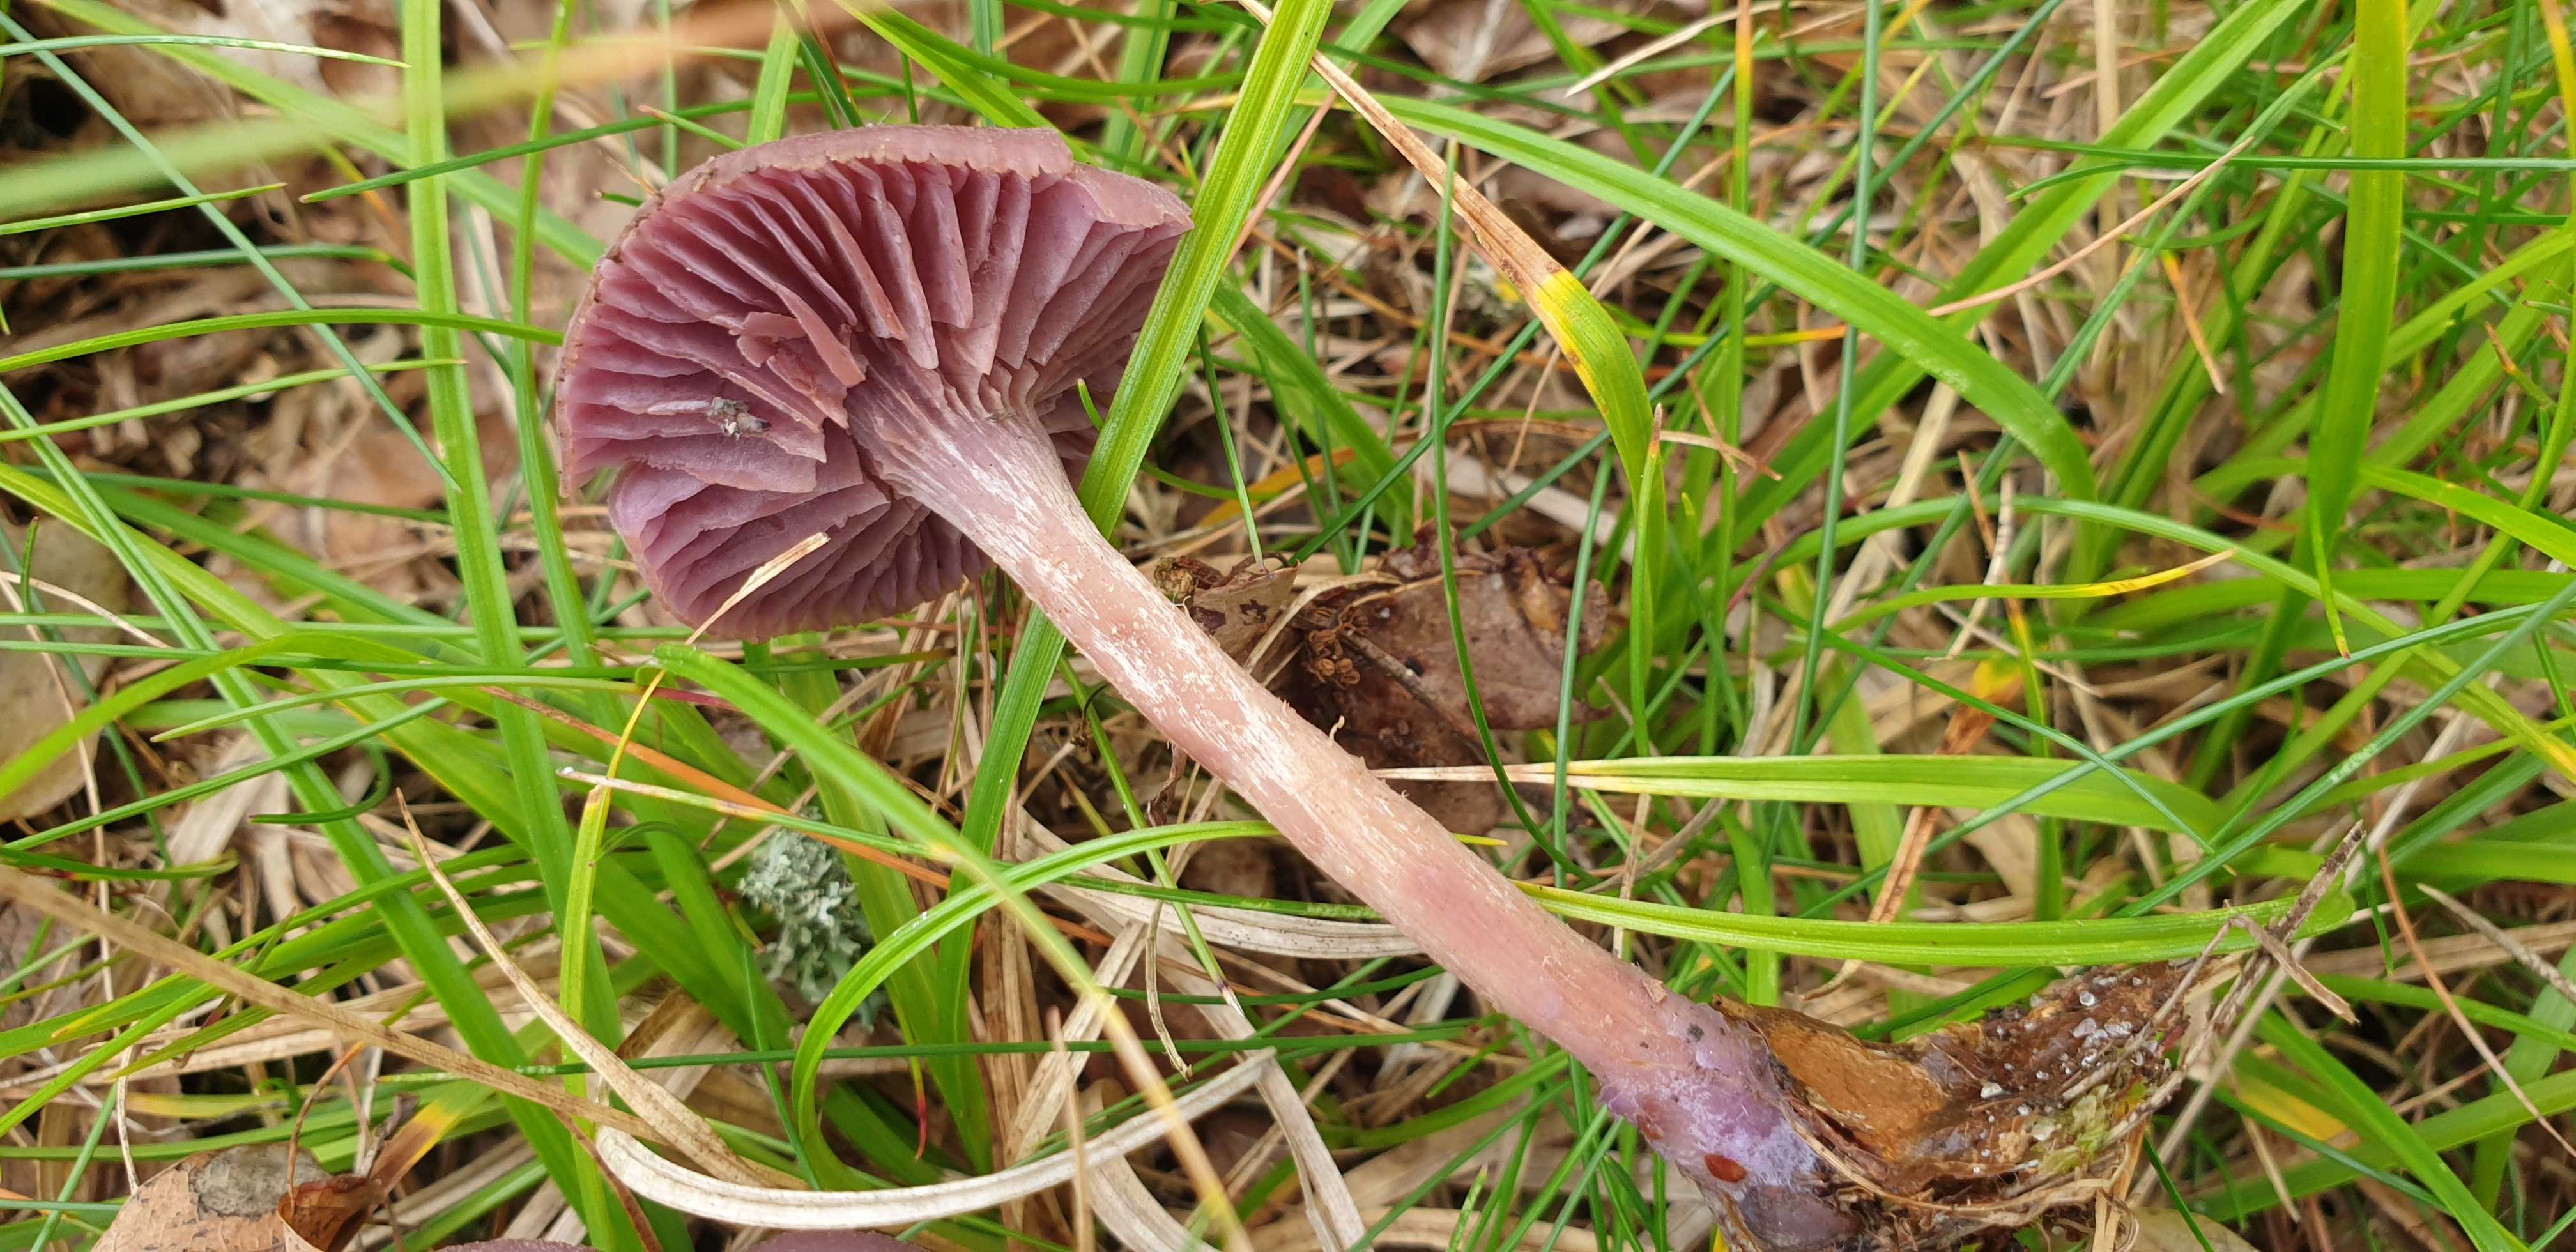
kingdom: Fungi
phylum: Basidiomycota
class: Agaricomycetes
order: Agaricales
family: Hydnangiaceae
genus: Laccaria
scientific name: Laccaria amethystina
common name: violet ametysthat
